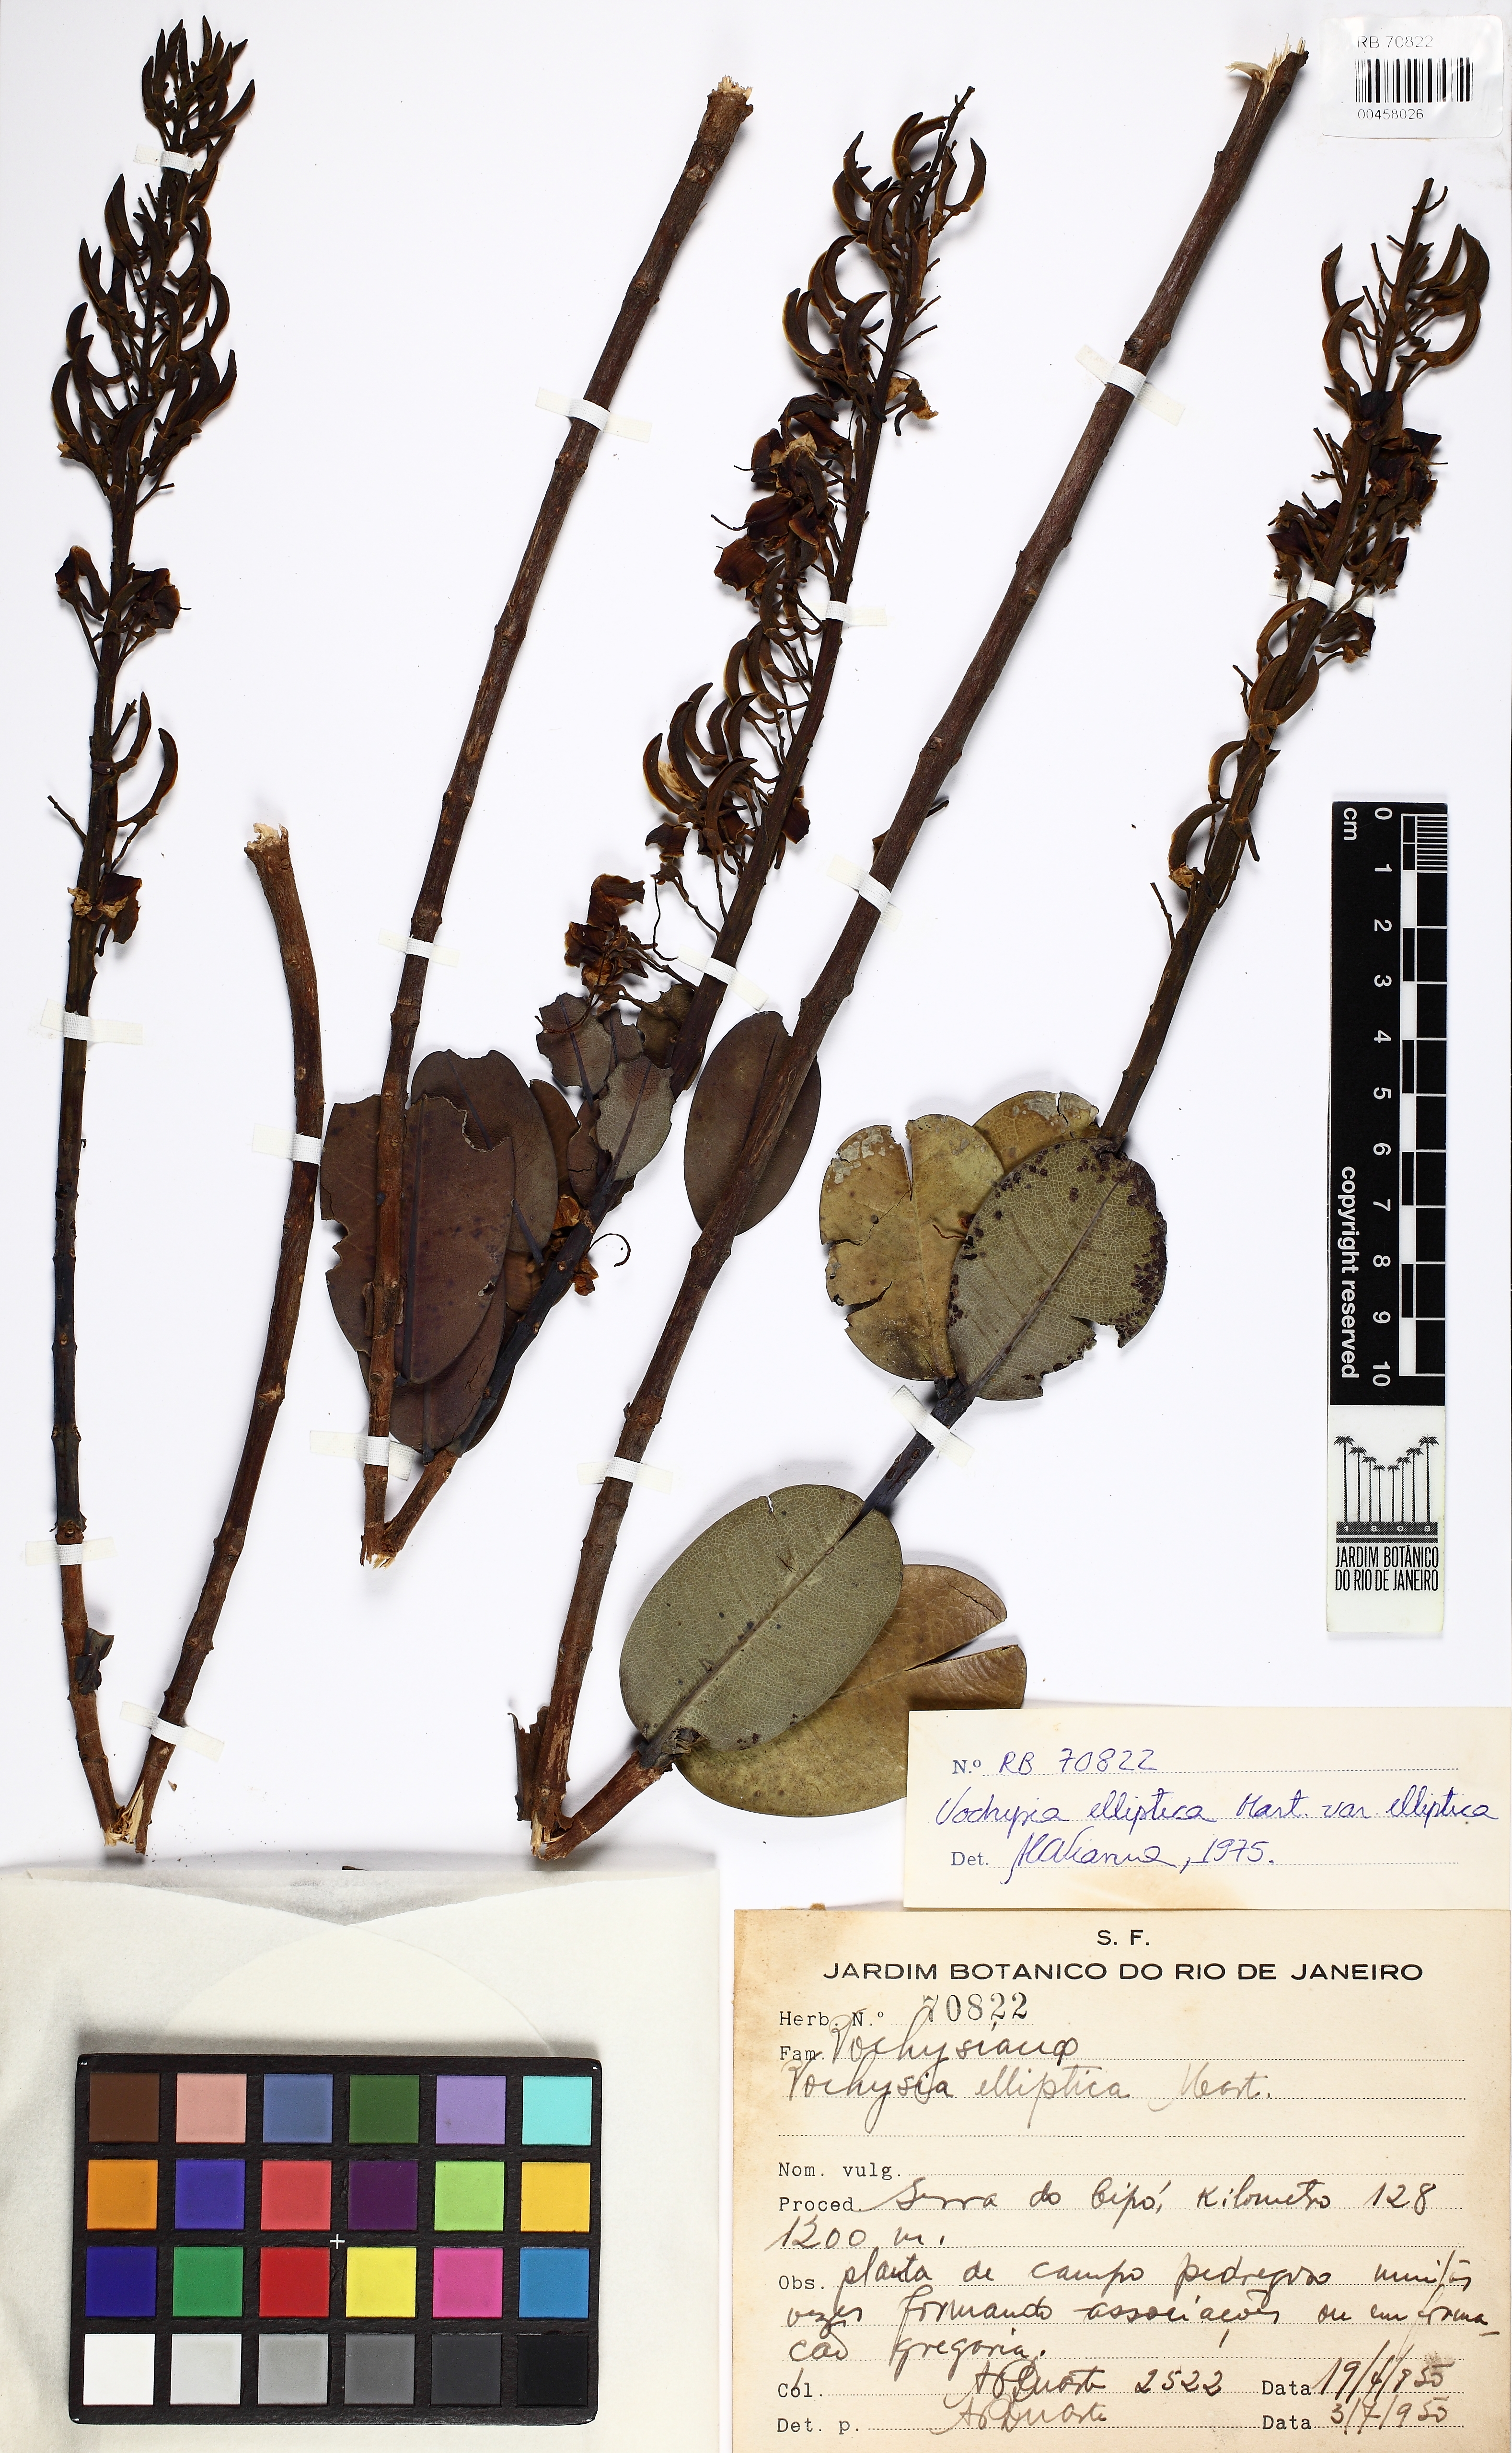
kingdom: Plantae
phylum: Tracheophyta
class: Magnoliopsida
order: Myrtales
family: Vochysiaceae
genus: Vochysia
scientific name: Vochysia elliptica
